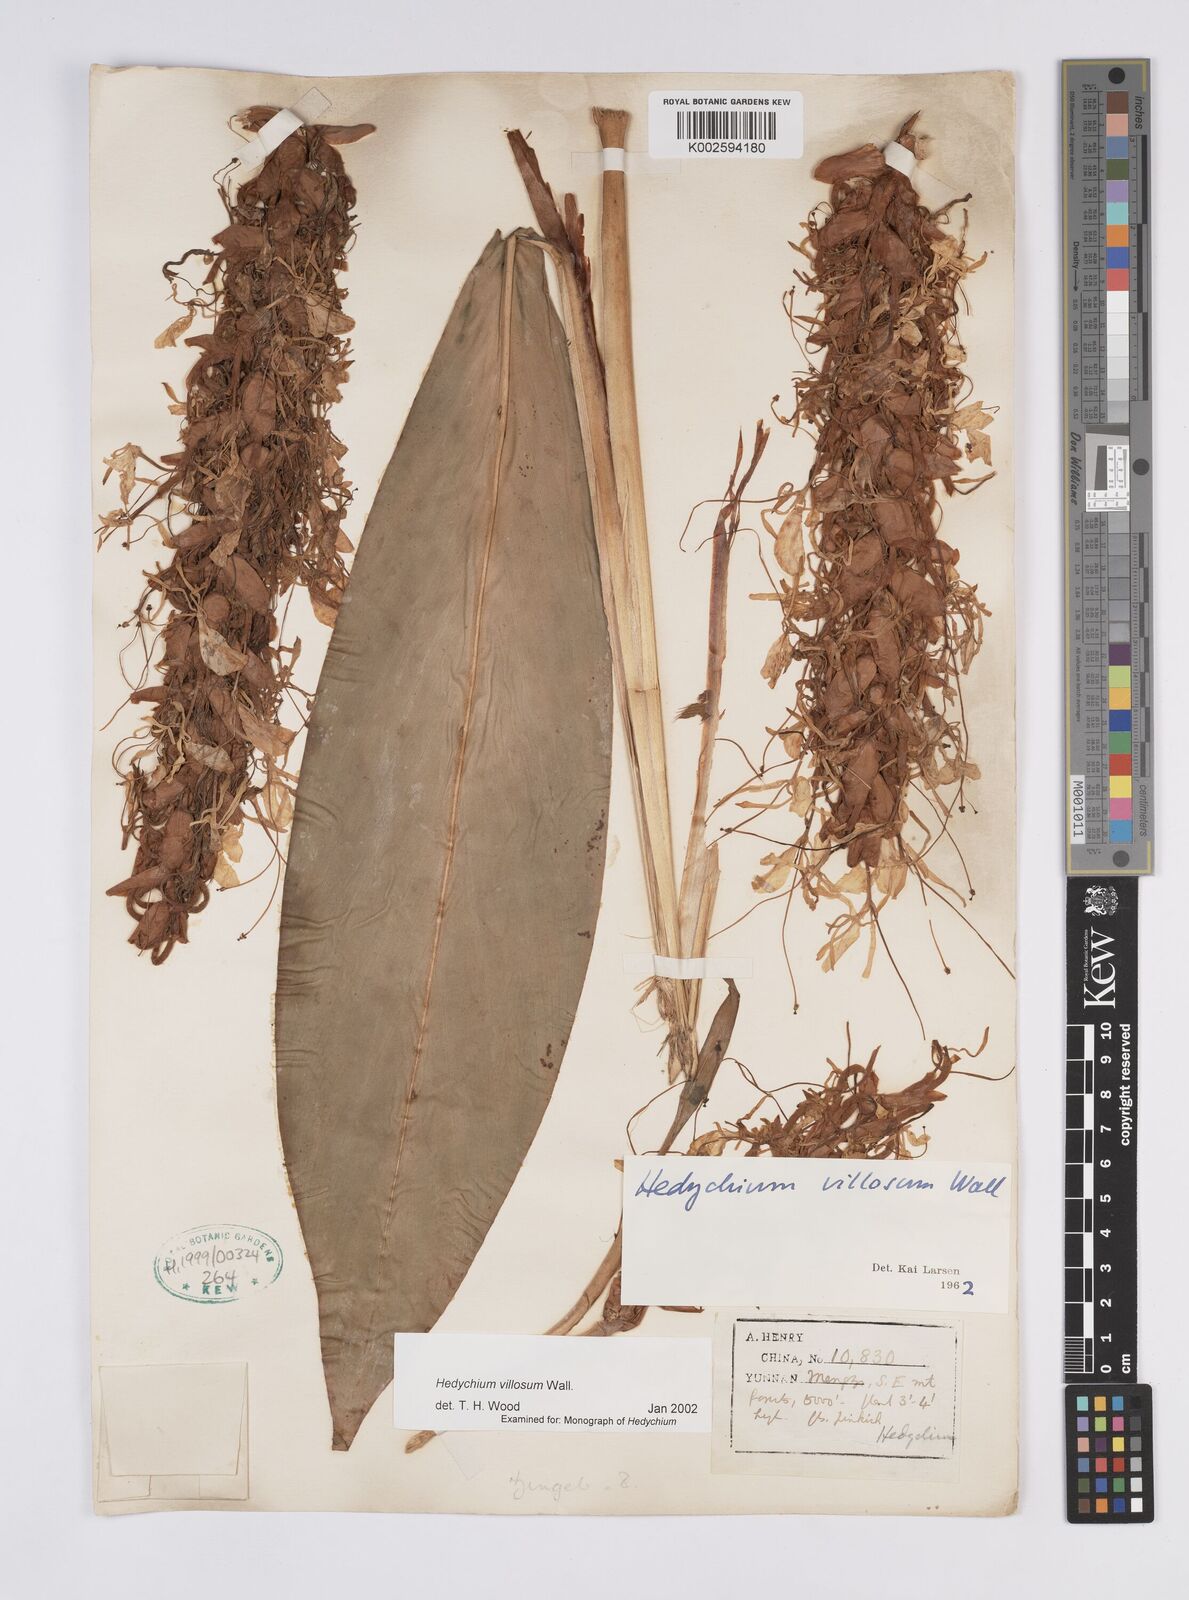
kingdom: Plantae
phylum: Tracheophyta
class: Liliopsida
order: Zingiberales
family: Zingiberaceae
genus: Hedychium
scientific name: Hedychium villosum
